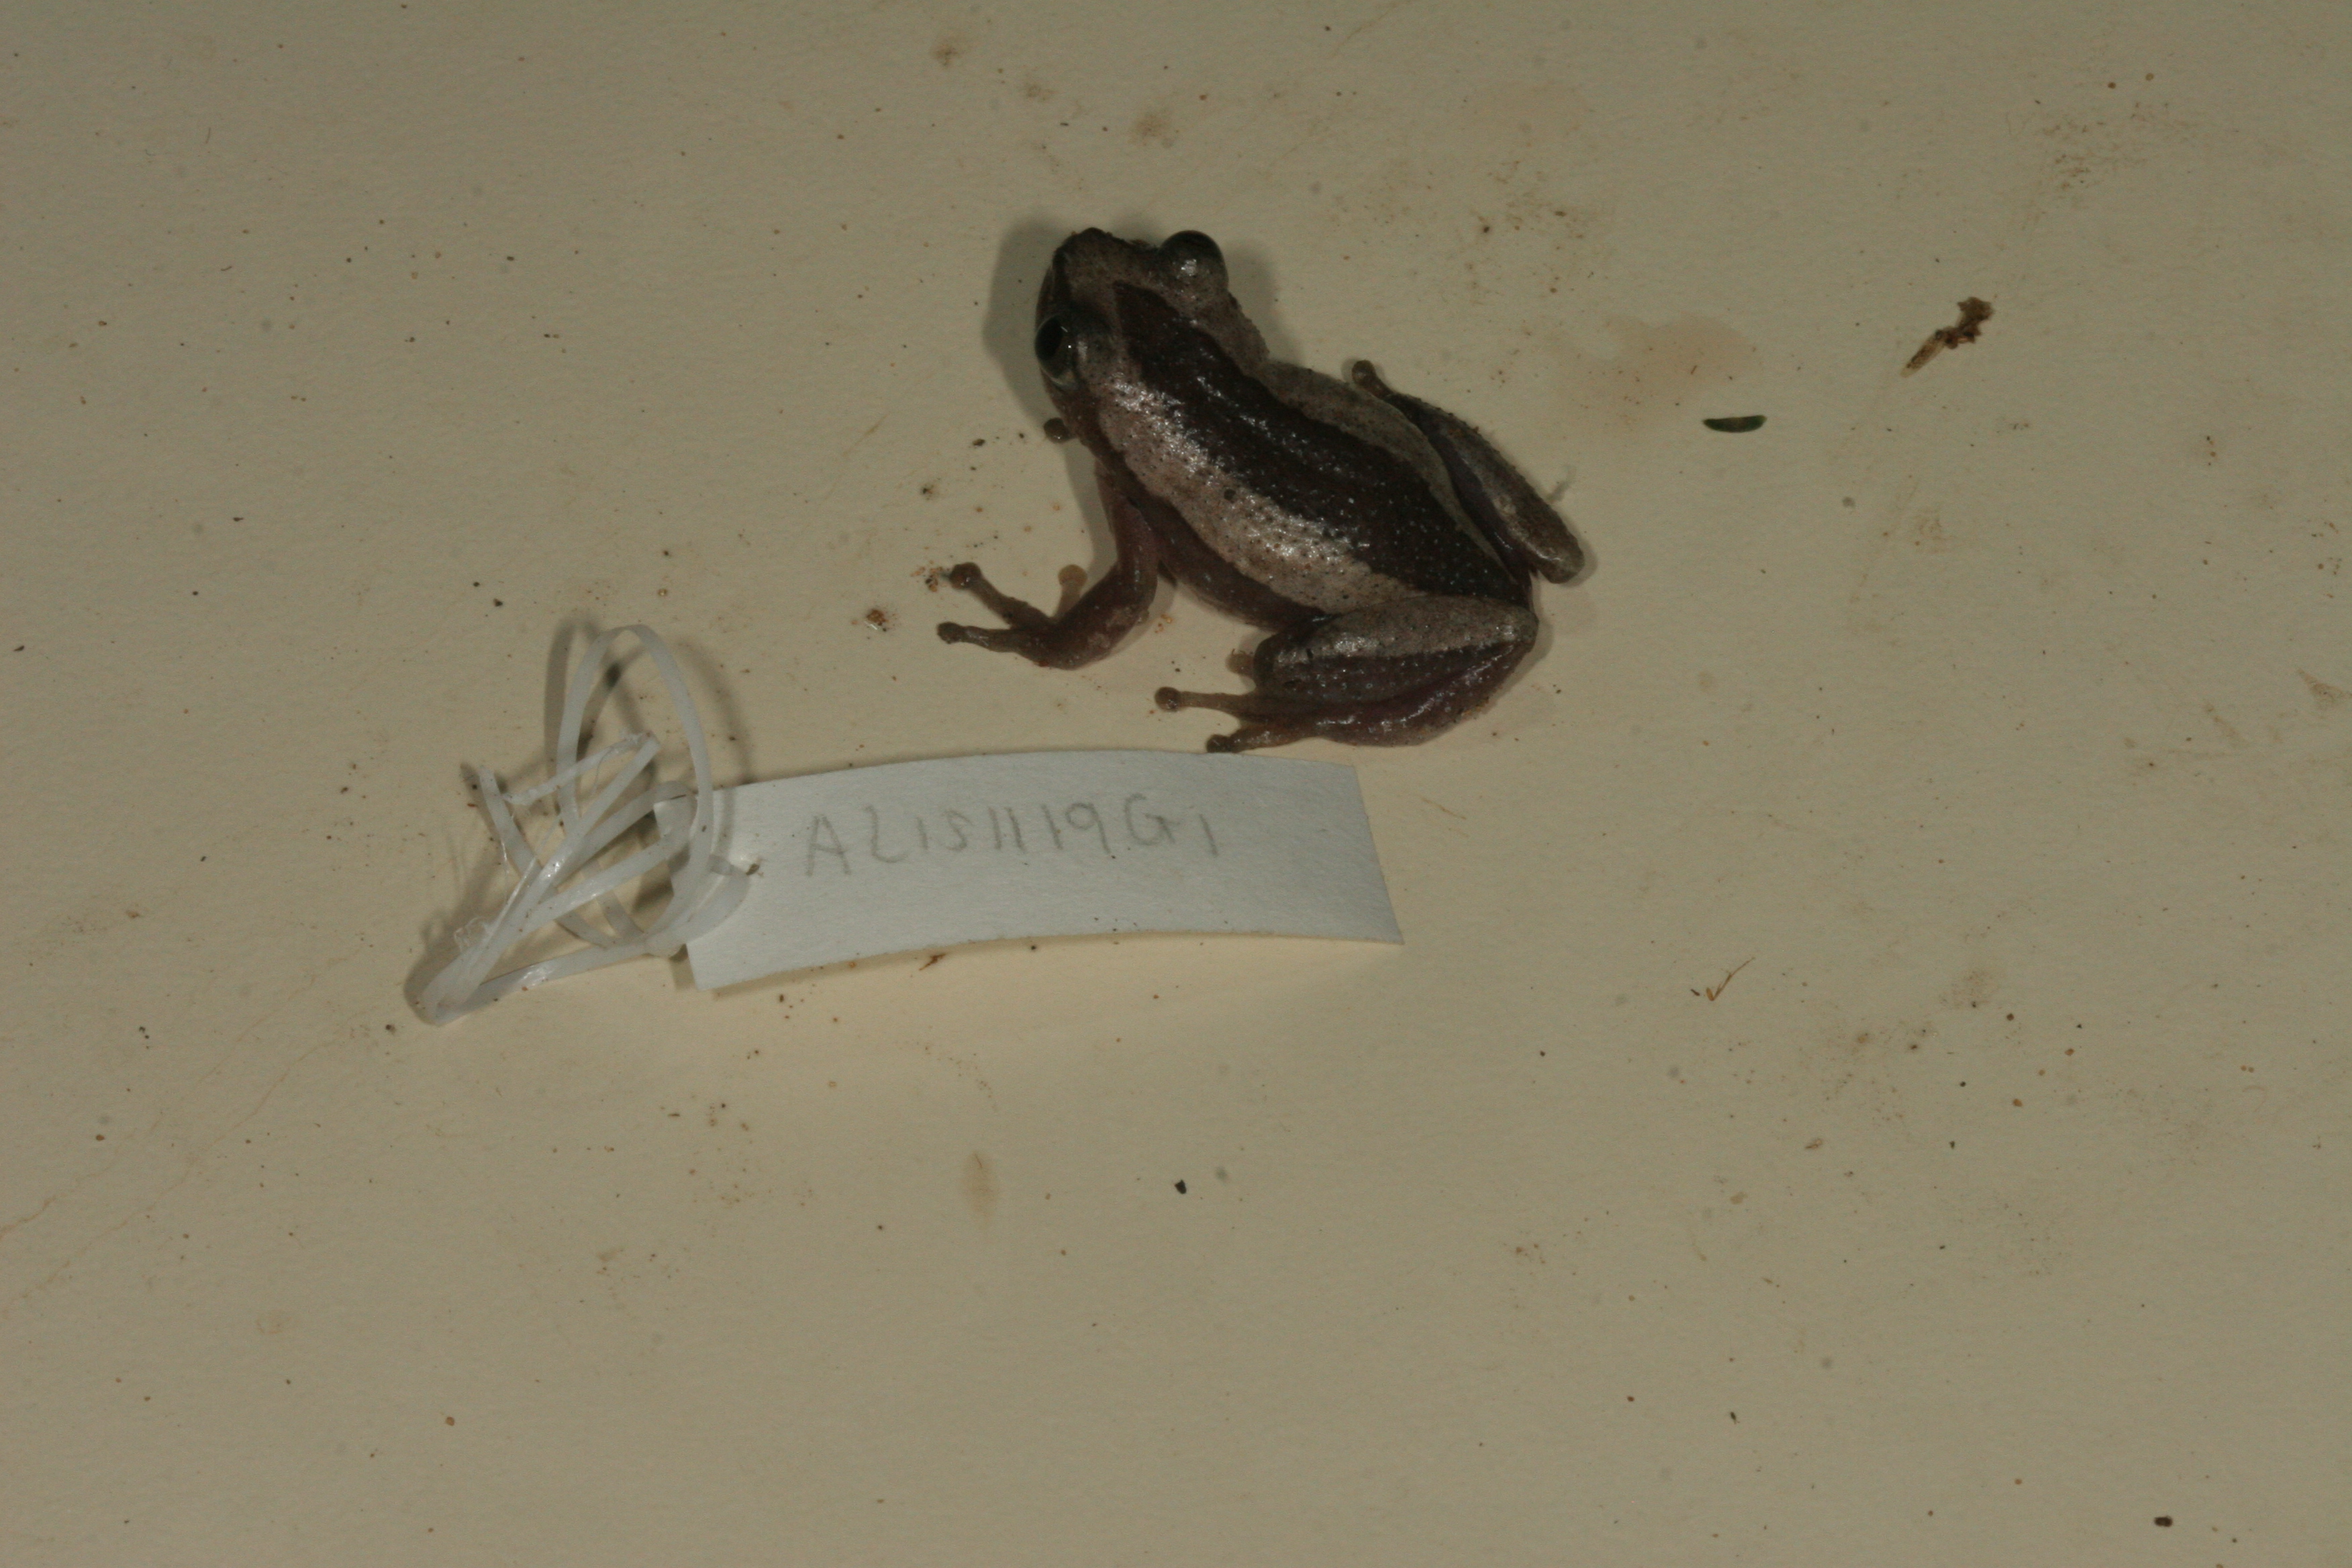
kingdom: Animalia
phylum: Chordata
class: Amphibia
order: Anura
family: Hyperoliidae
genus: Afrixalus
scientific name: Afrixalus fornasini
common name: Fornasini's spiny reed frog
